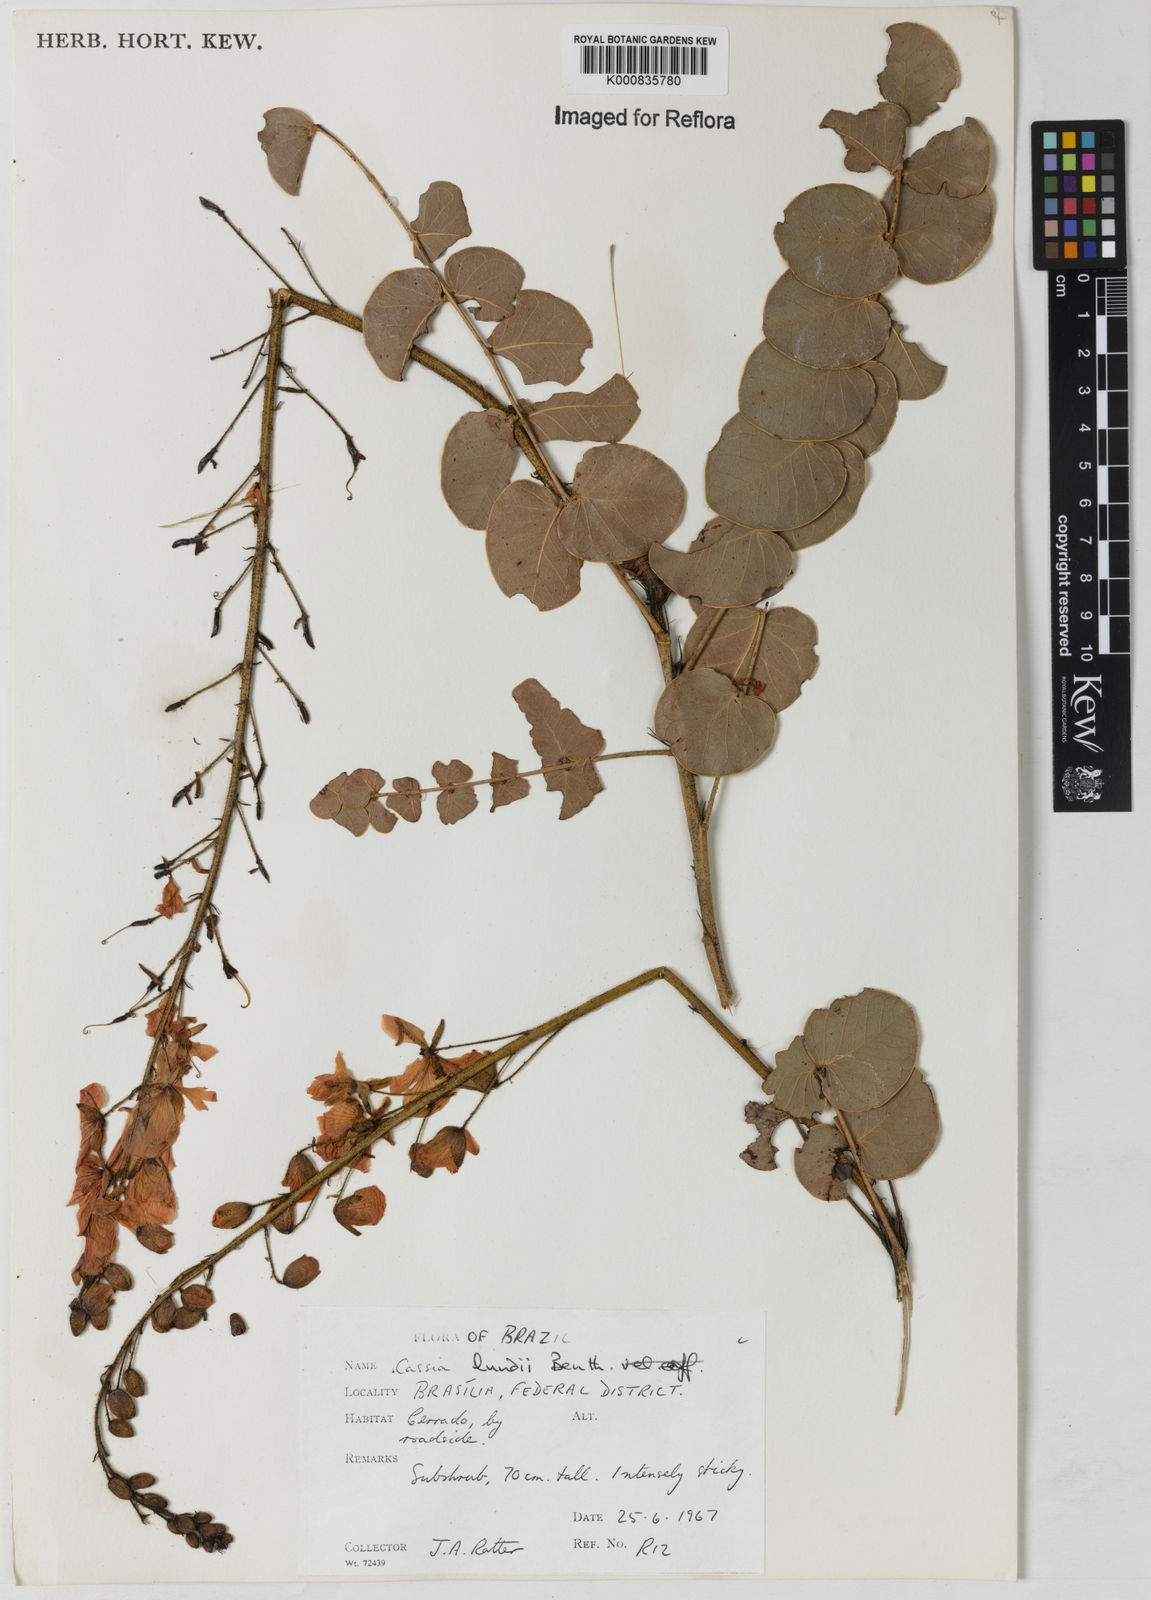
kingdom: Plantae
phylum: Tracheophyta
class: Magnoliopsida
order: Fabales
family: Fabaceae
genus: Chamaecrista
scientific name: Chamaecrista lundii
